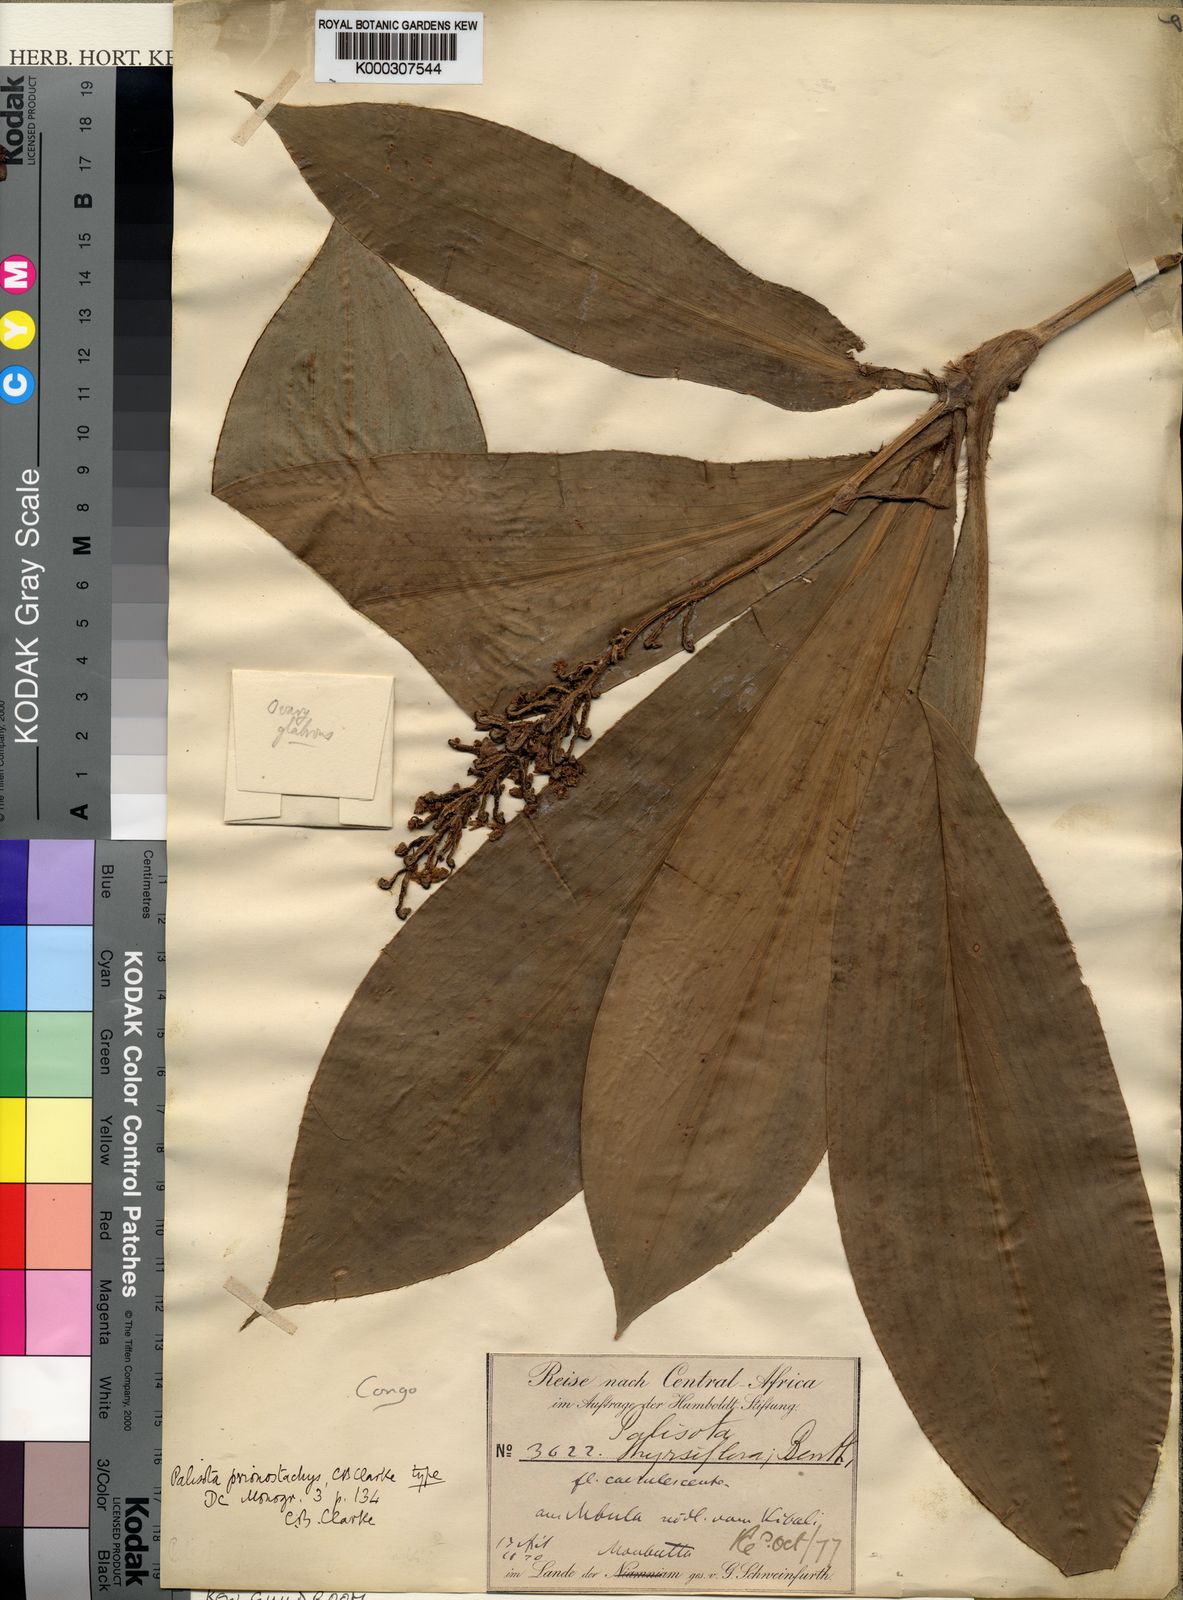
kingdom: Plantae
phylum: Tracheophyta
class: Liliopsida
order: Commelinales
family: Commelinaceae
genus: Palisota
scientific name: Palisota ambigua
